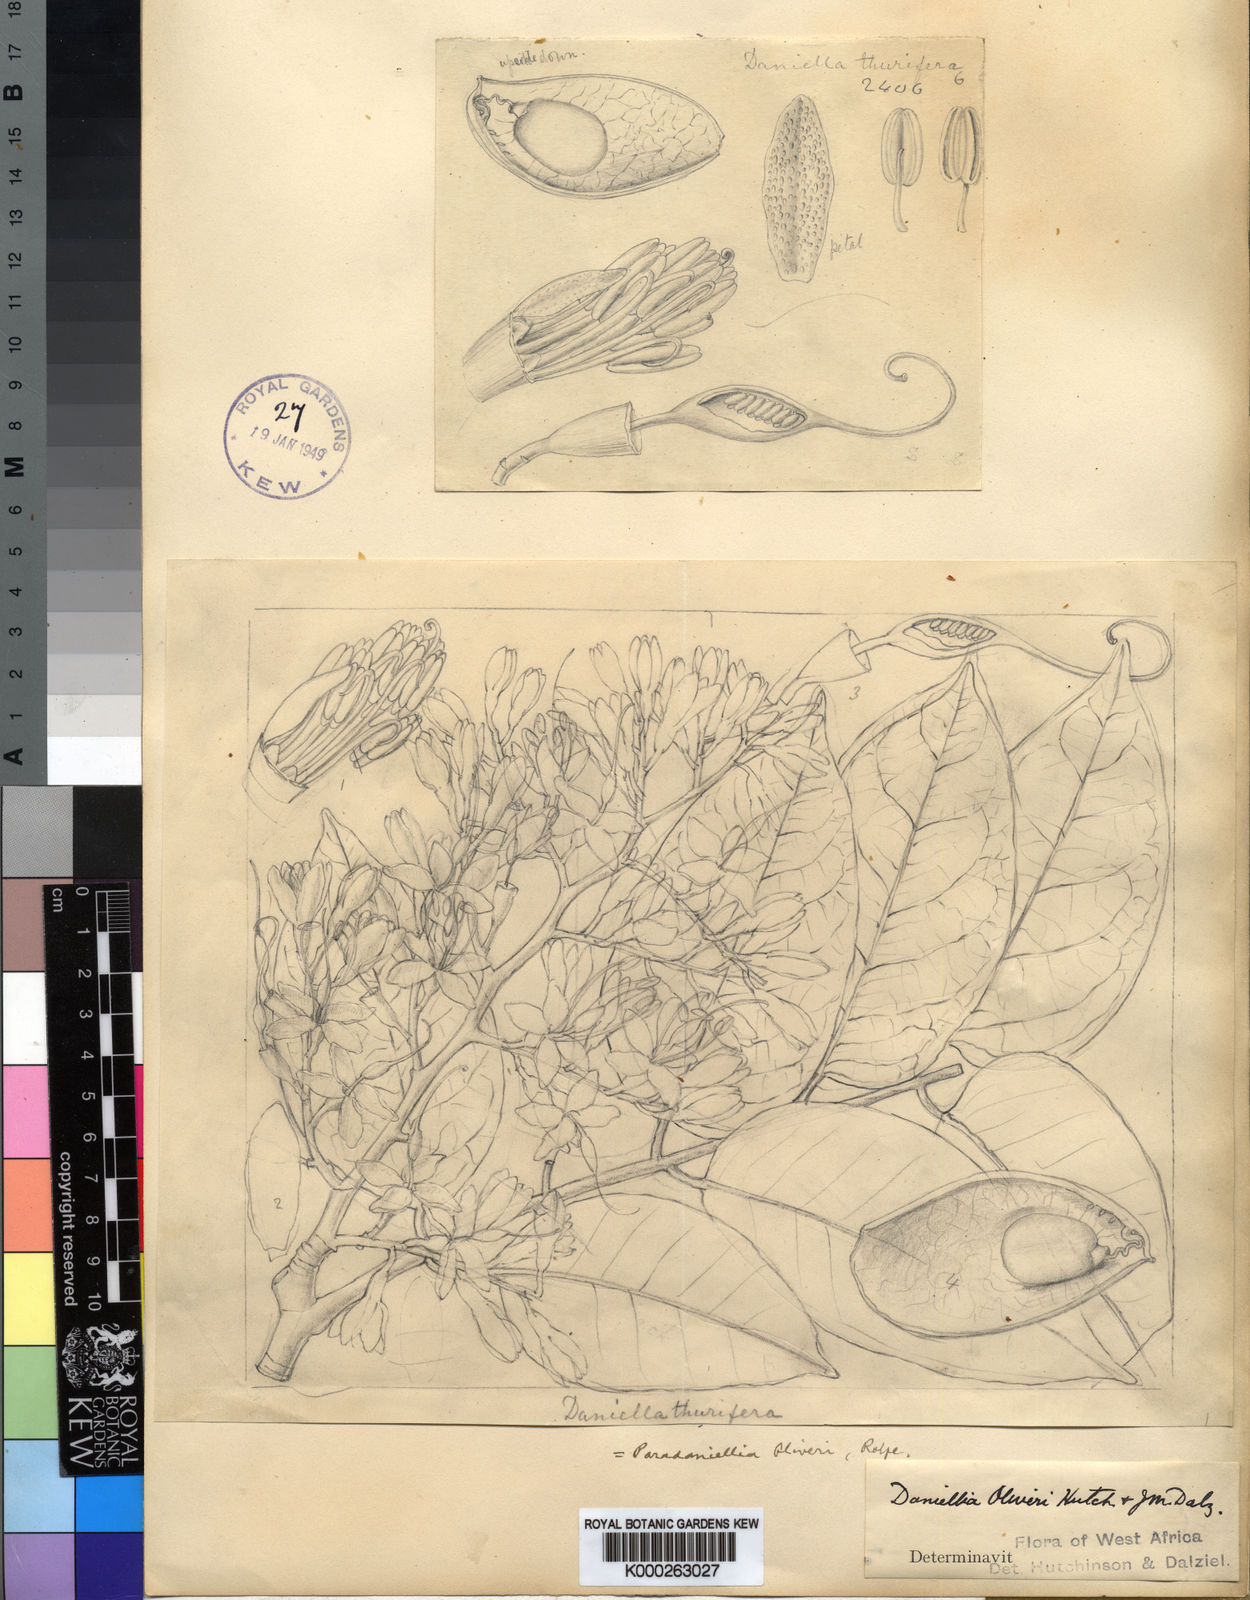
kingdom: Plantae
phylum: Tracheophyta
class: Magnoliopsida
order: Fabales
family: Fabaceae
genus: Daniellia
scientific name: Daniellia
